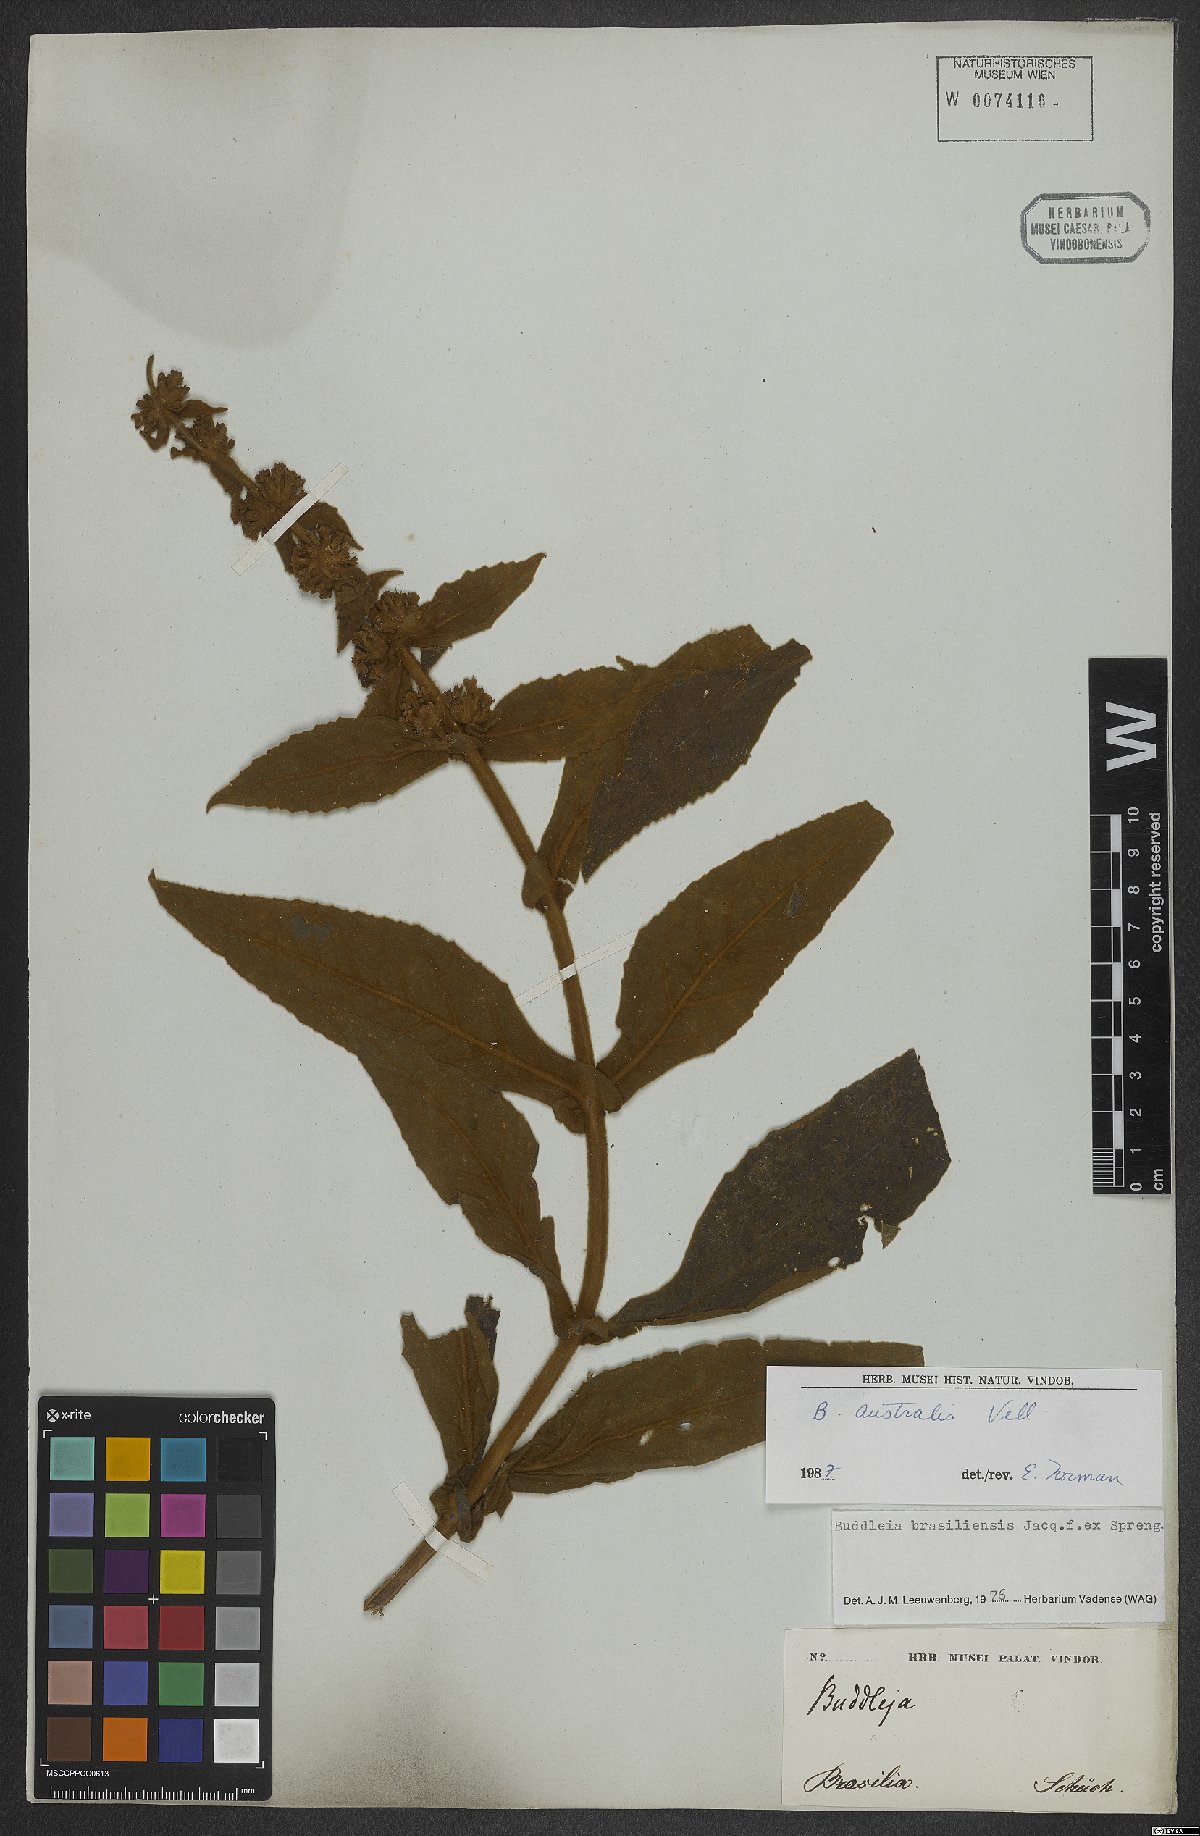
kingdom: Plantae
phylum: Tracheophyta
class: Magnoliopsida
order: Lamiales
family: Scrophulariaceae
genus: Buddleja
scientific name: Buddleja stachyoides
